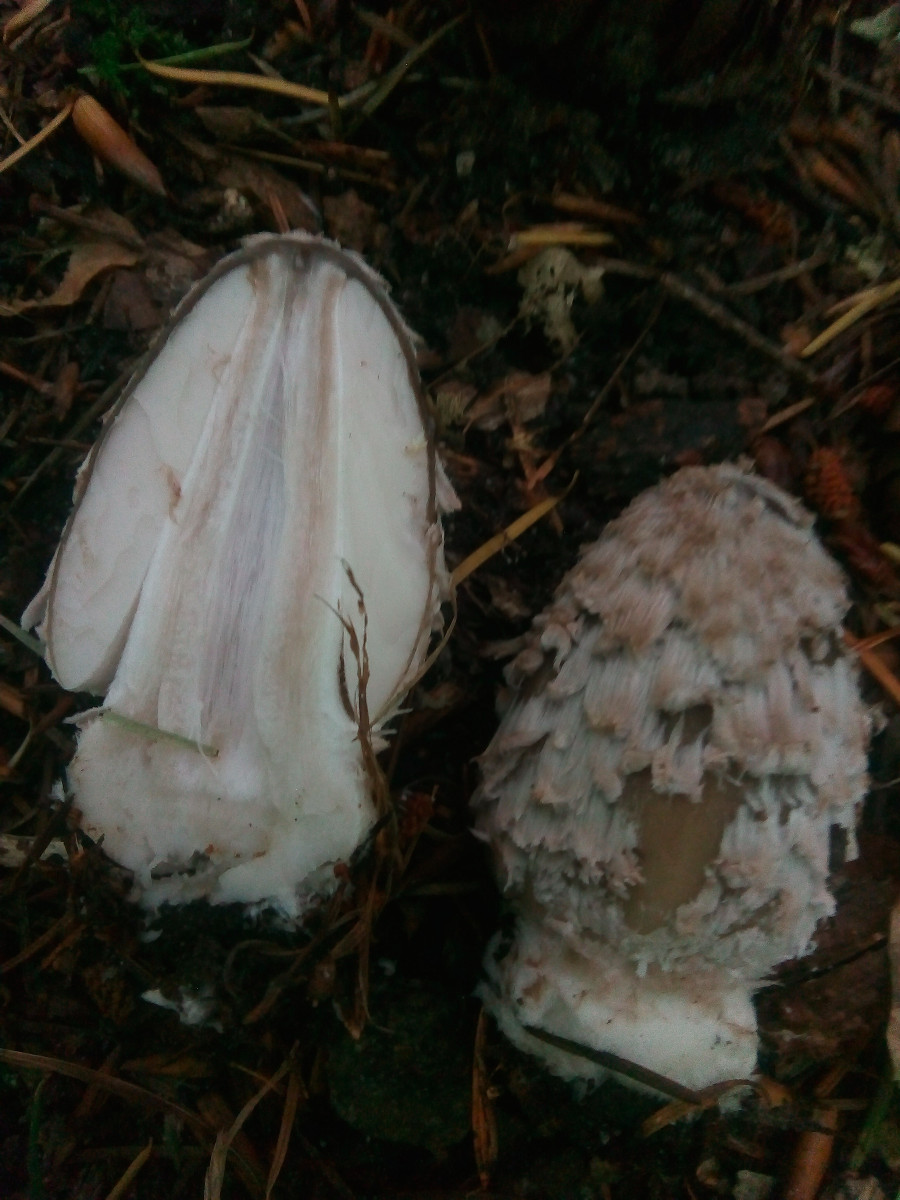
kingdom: Fungi
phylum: Basidiomycota
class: Agaricomycetes
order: Agaricales
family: Psathyrellaceae
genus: Coprinopsis
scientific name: Coprinopsis picacea
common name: skade-blækhat
